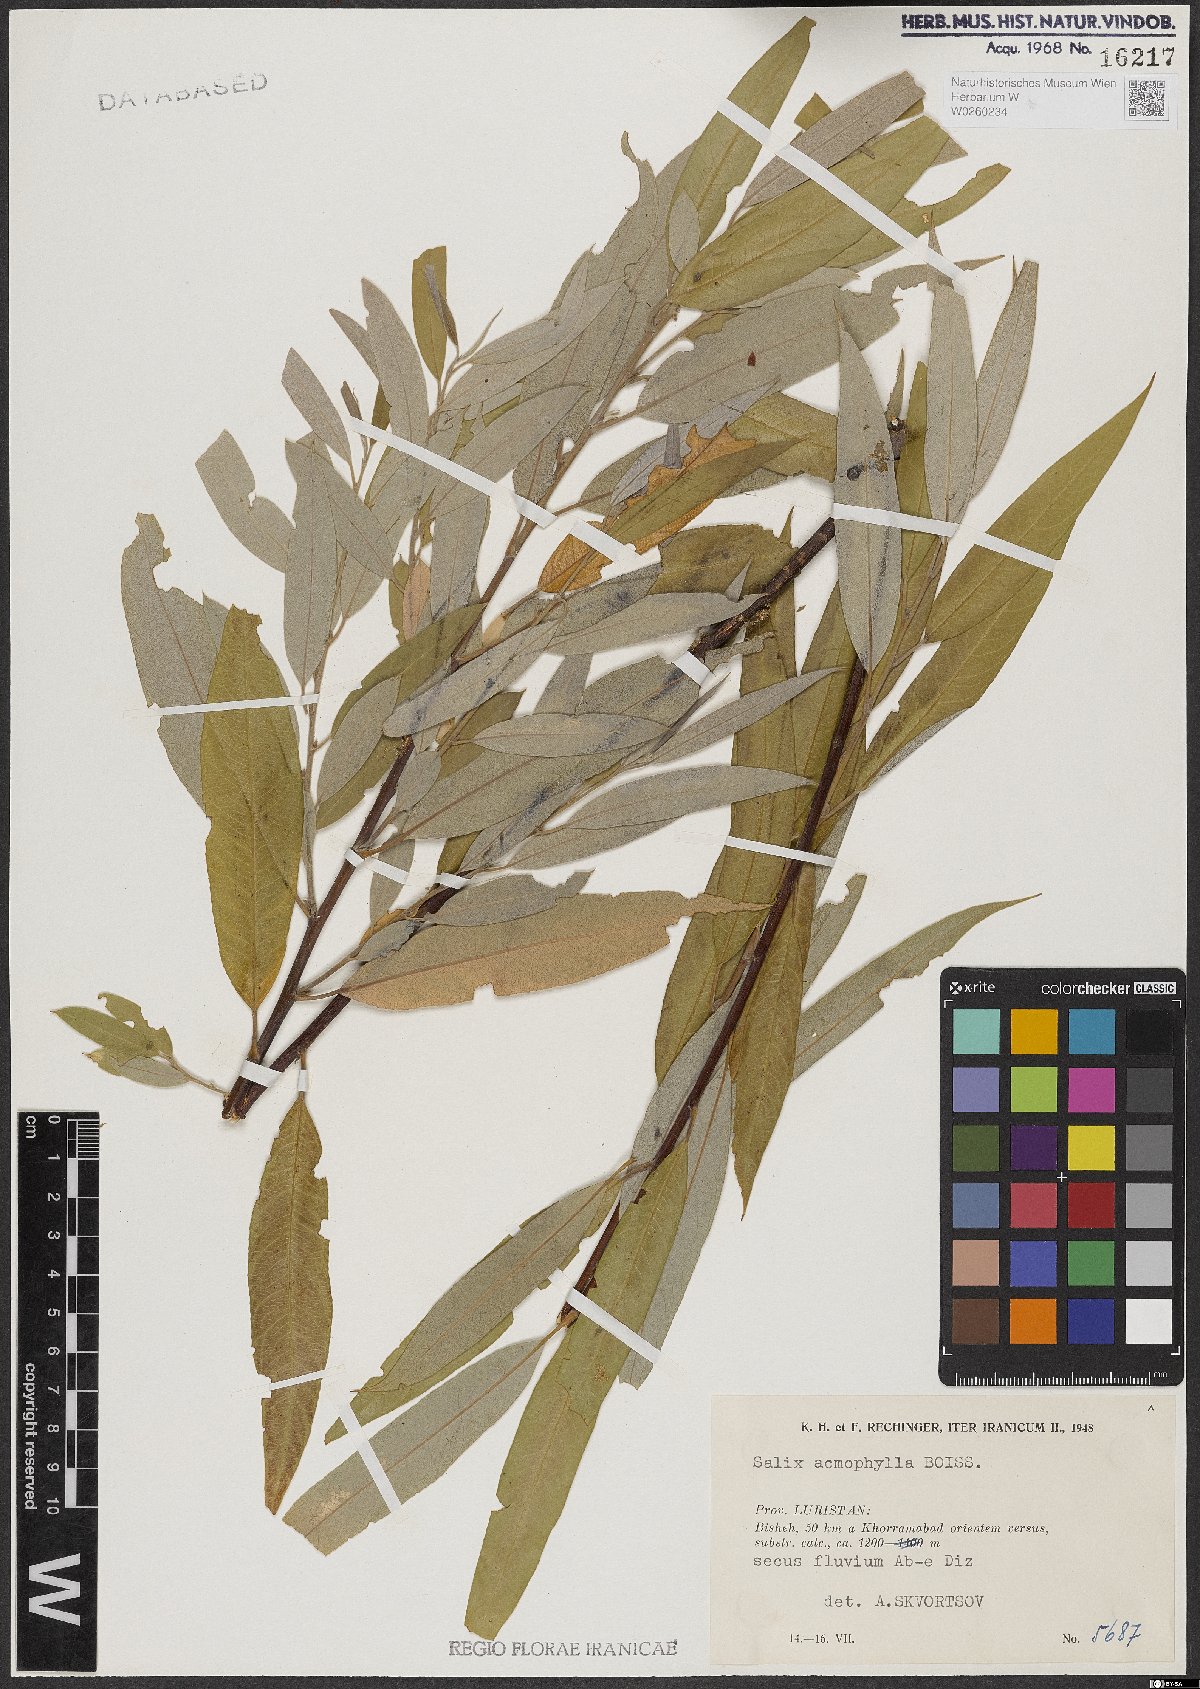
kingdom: Plantae
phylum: Tracheophyta
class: Magnoliopsida
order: Malpighiales
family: Salicaceae
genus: Salix
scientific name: Salix acmophylla
